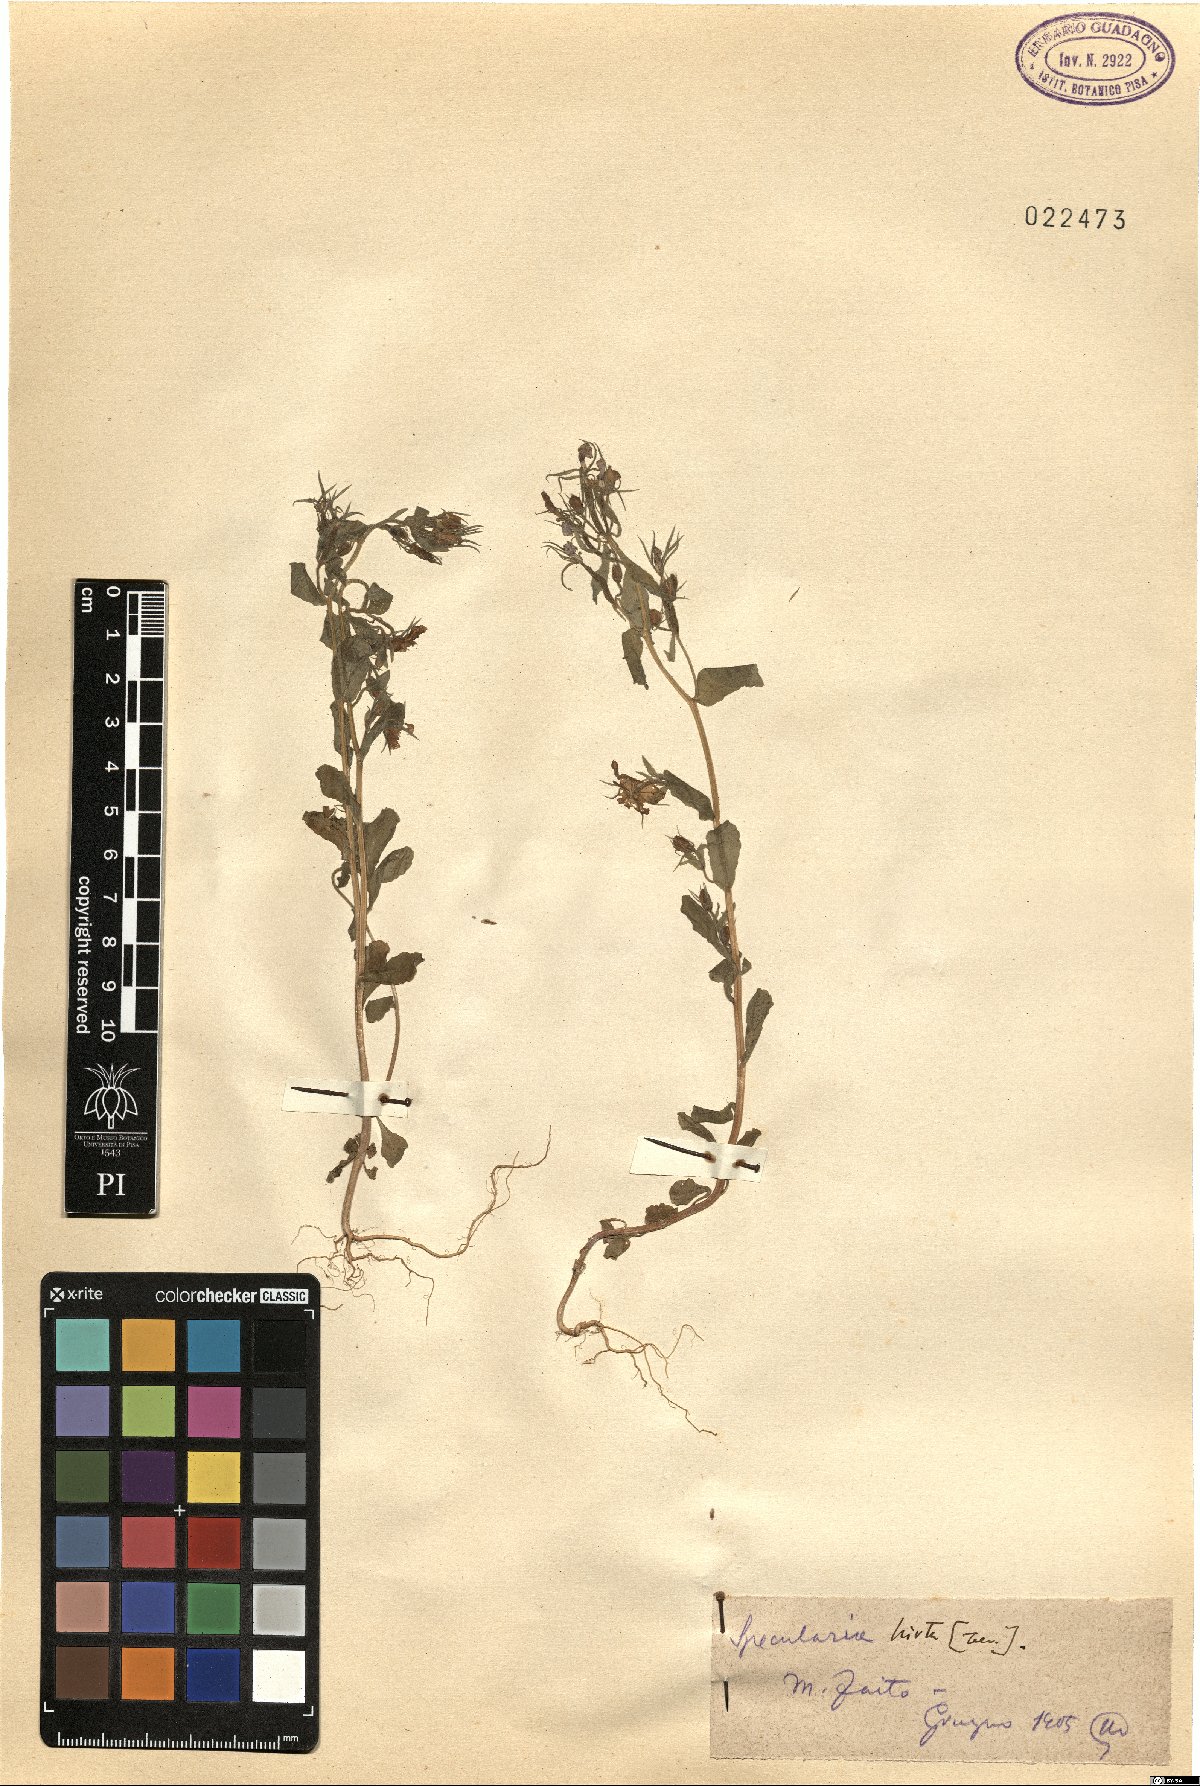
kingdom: Plantae
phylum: Tracheophyta
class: Magnoliopsida
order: Asterales
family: Campanulaceae
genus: Legousia
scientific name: Legousia speculum-veneris
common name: Large venus's-looking-glass
